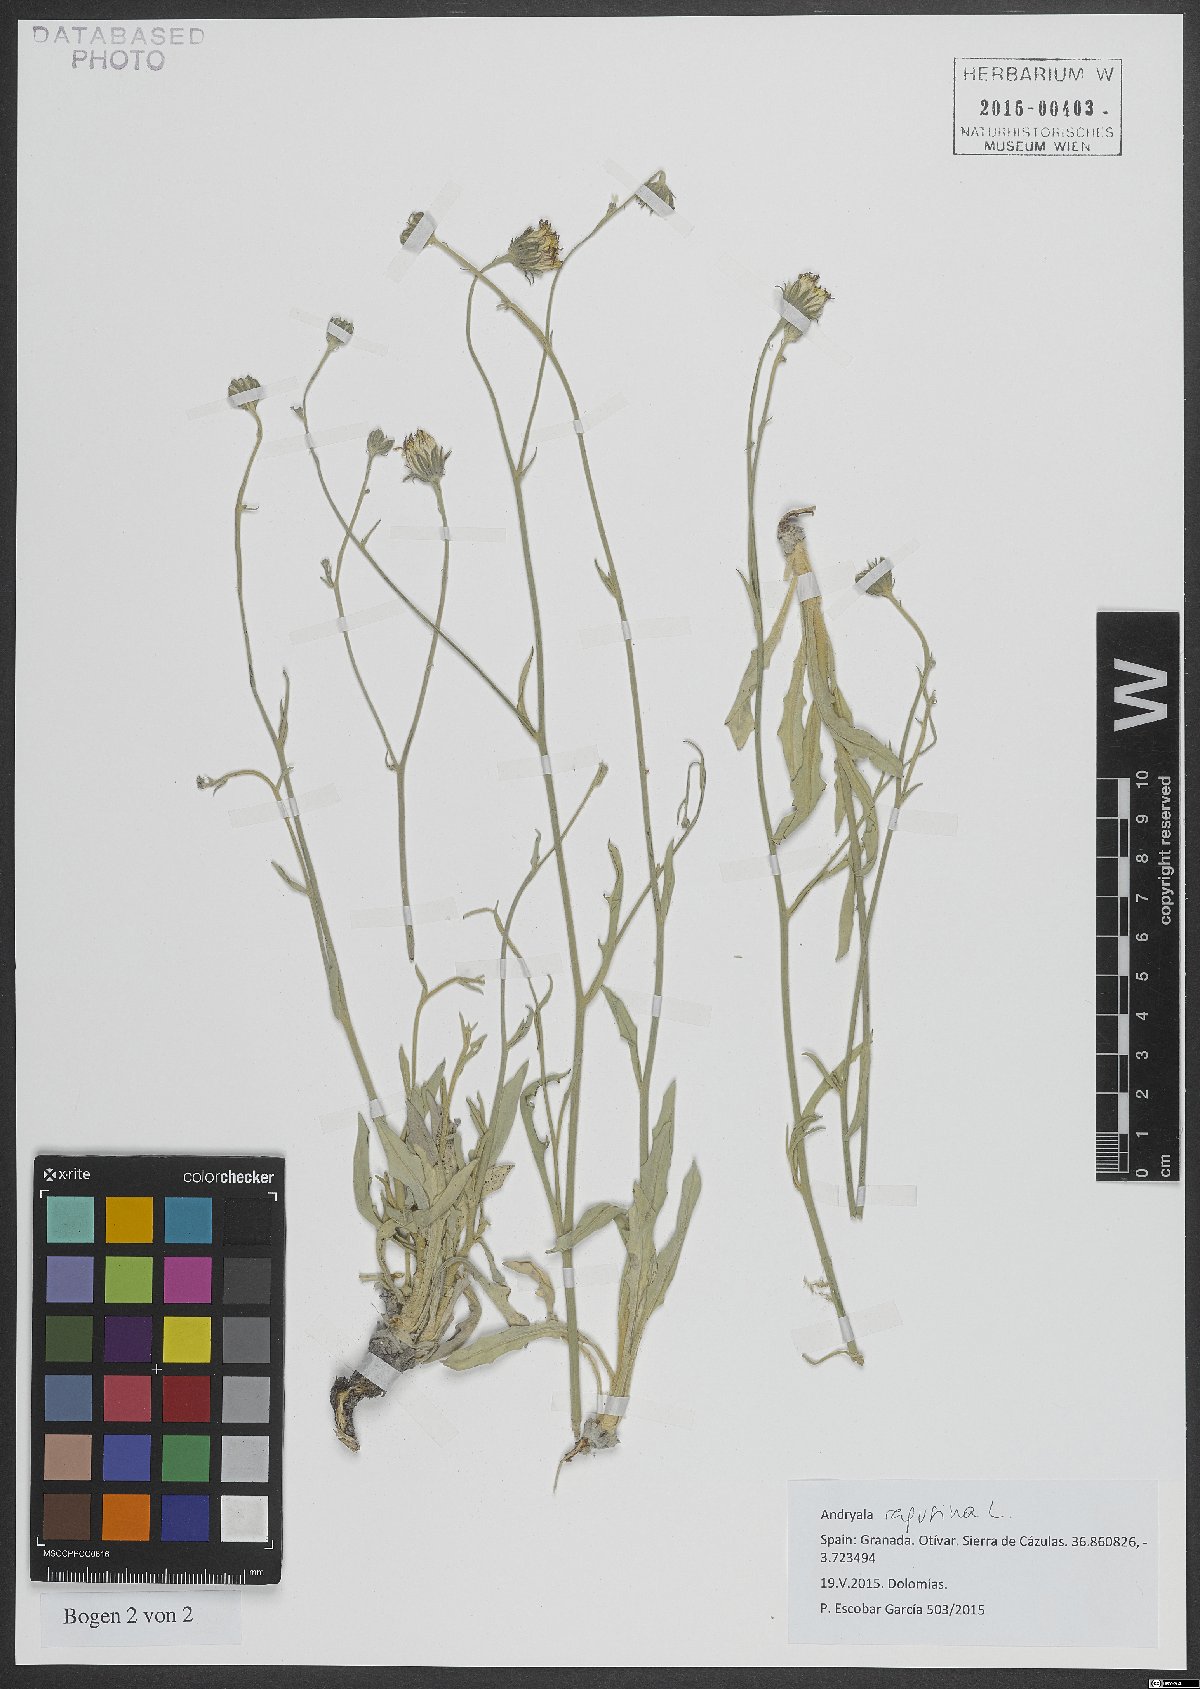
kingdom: Plantae
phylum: Tracheophyta
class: Magnoliopsida
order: Asterales
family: Asteraceae
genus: Andryala
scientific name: Andryala ragusina
